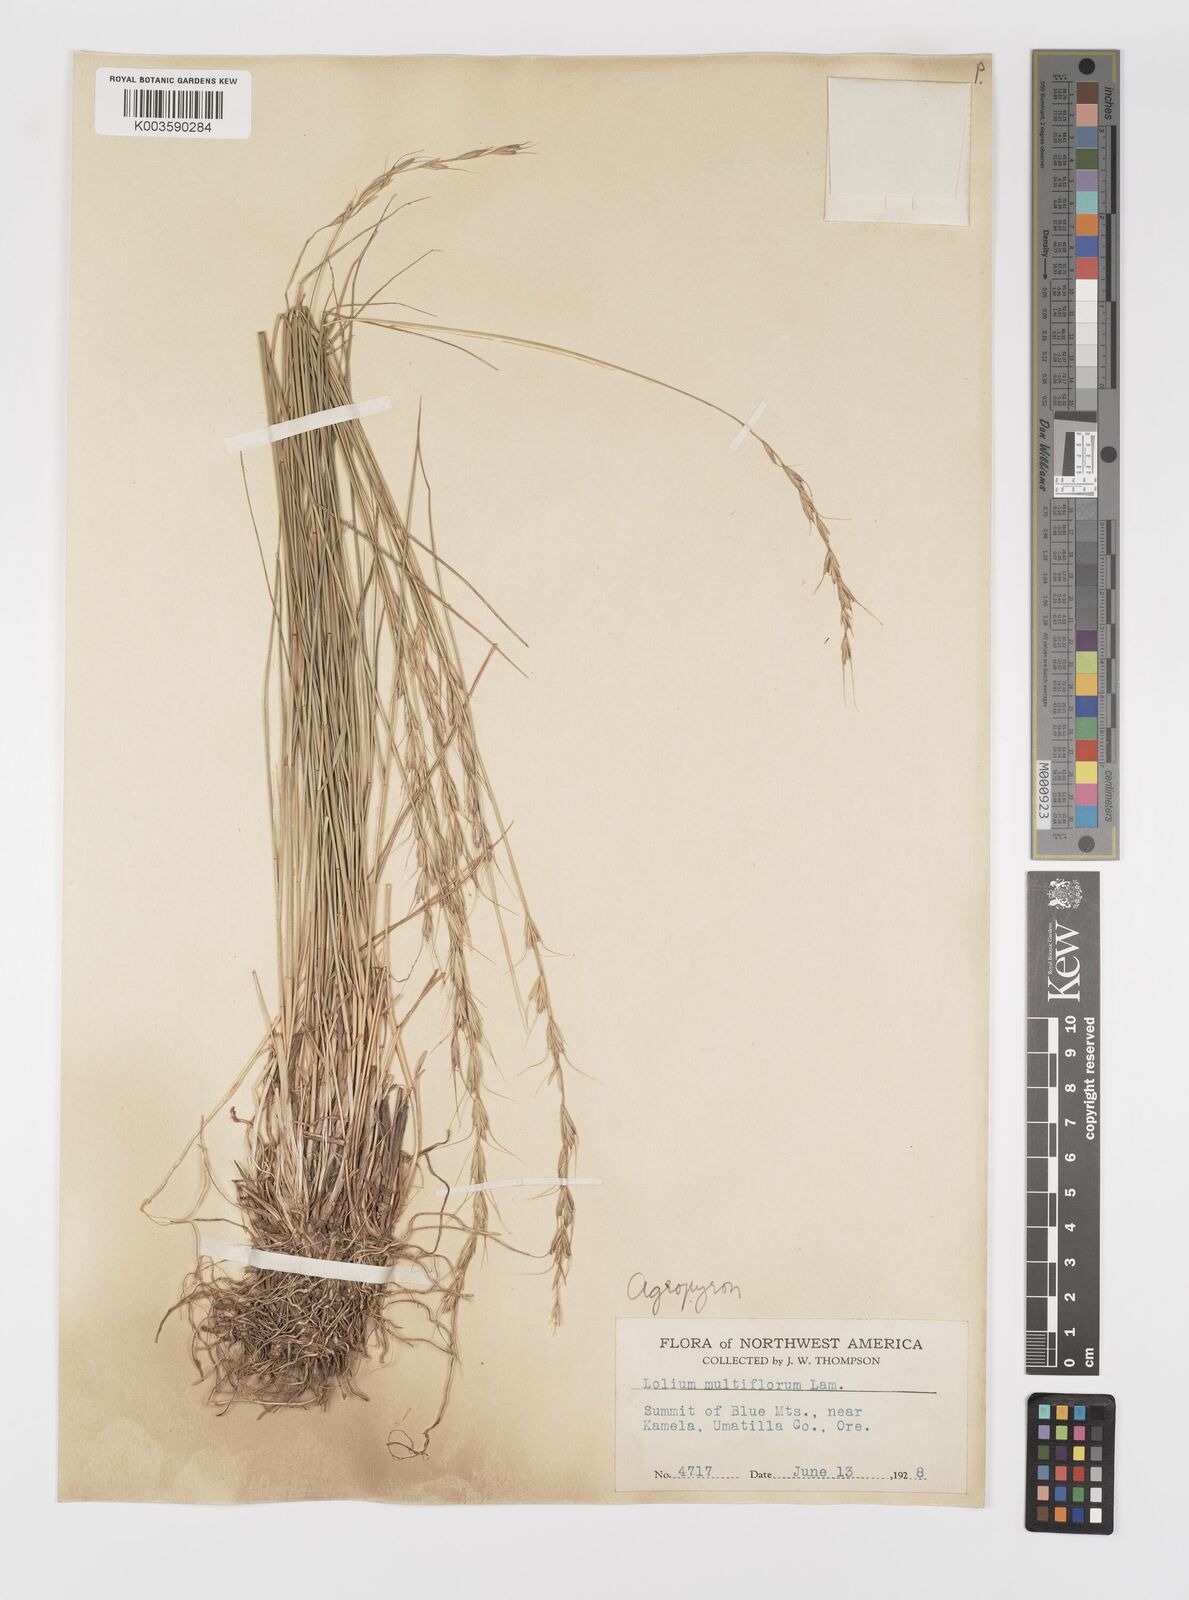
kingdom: Plantae
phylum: Tracheophyta
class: Liliopsida
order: Poales
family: Poaceae
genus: Elymus
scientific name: Elymus
